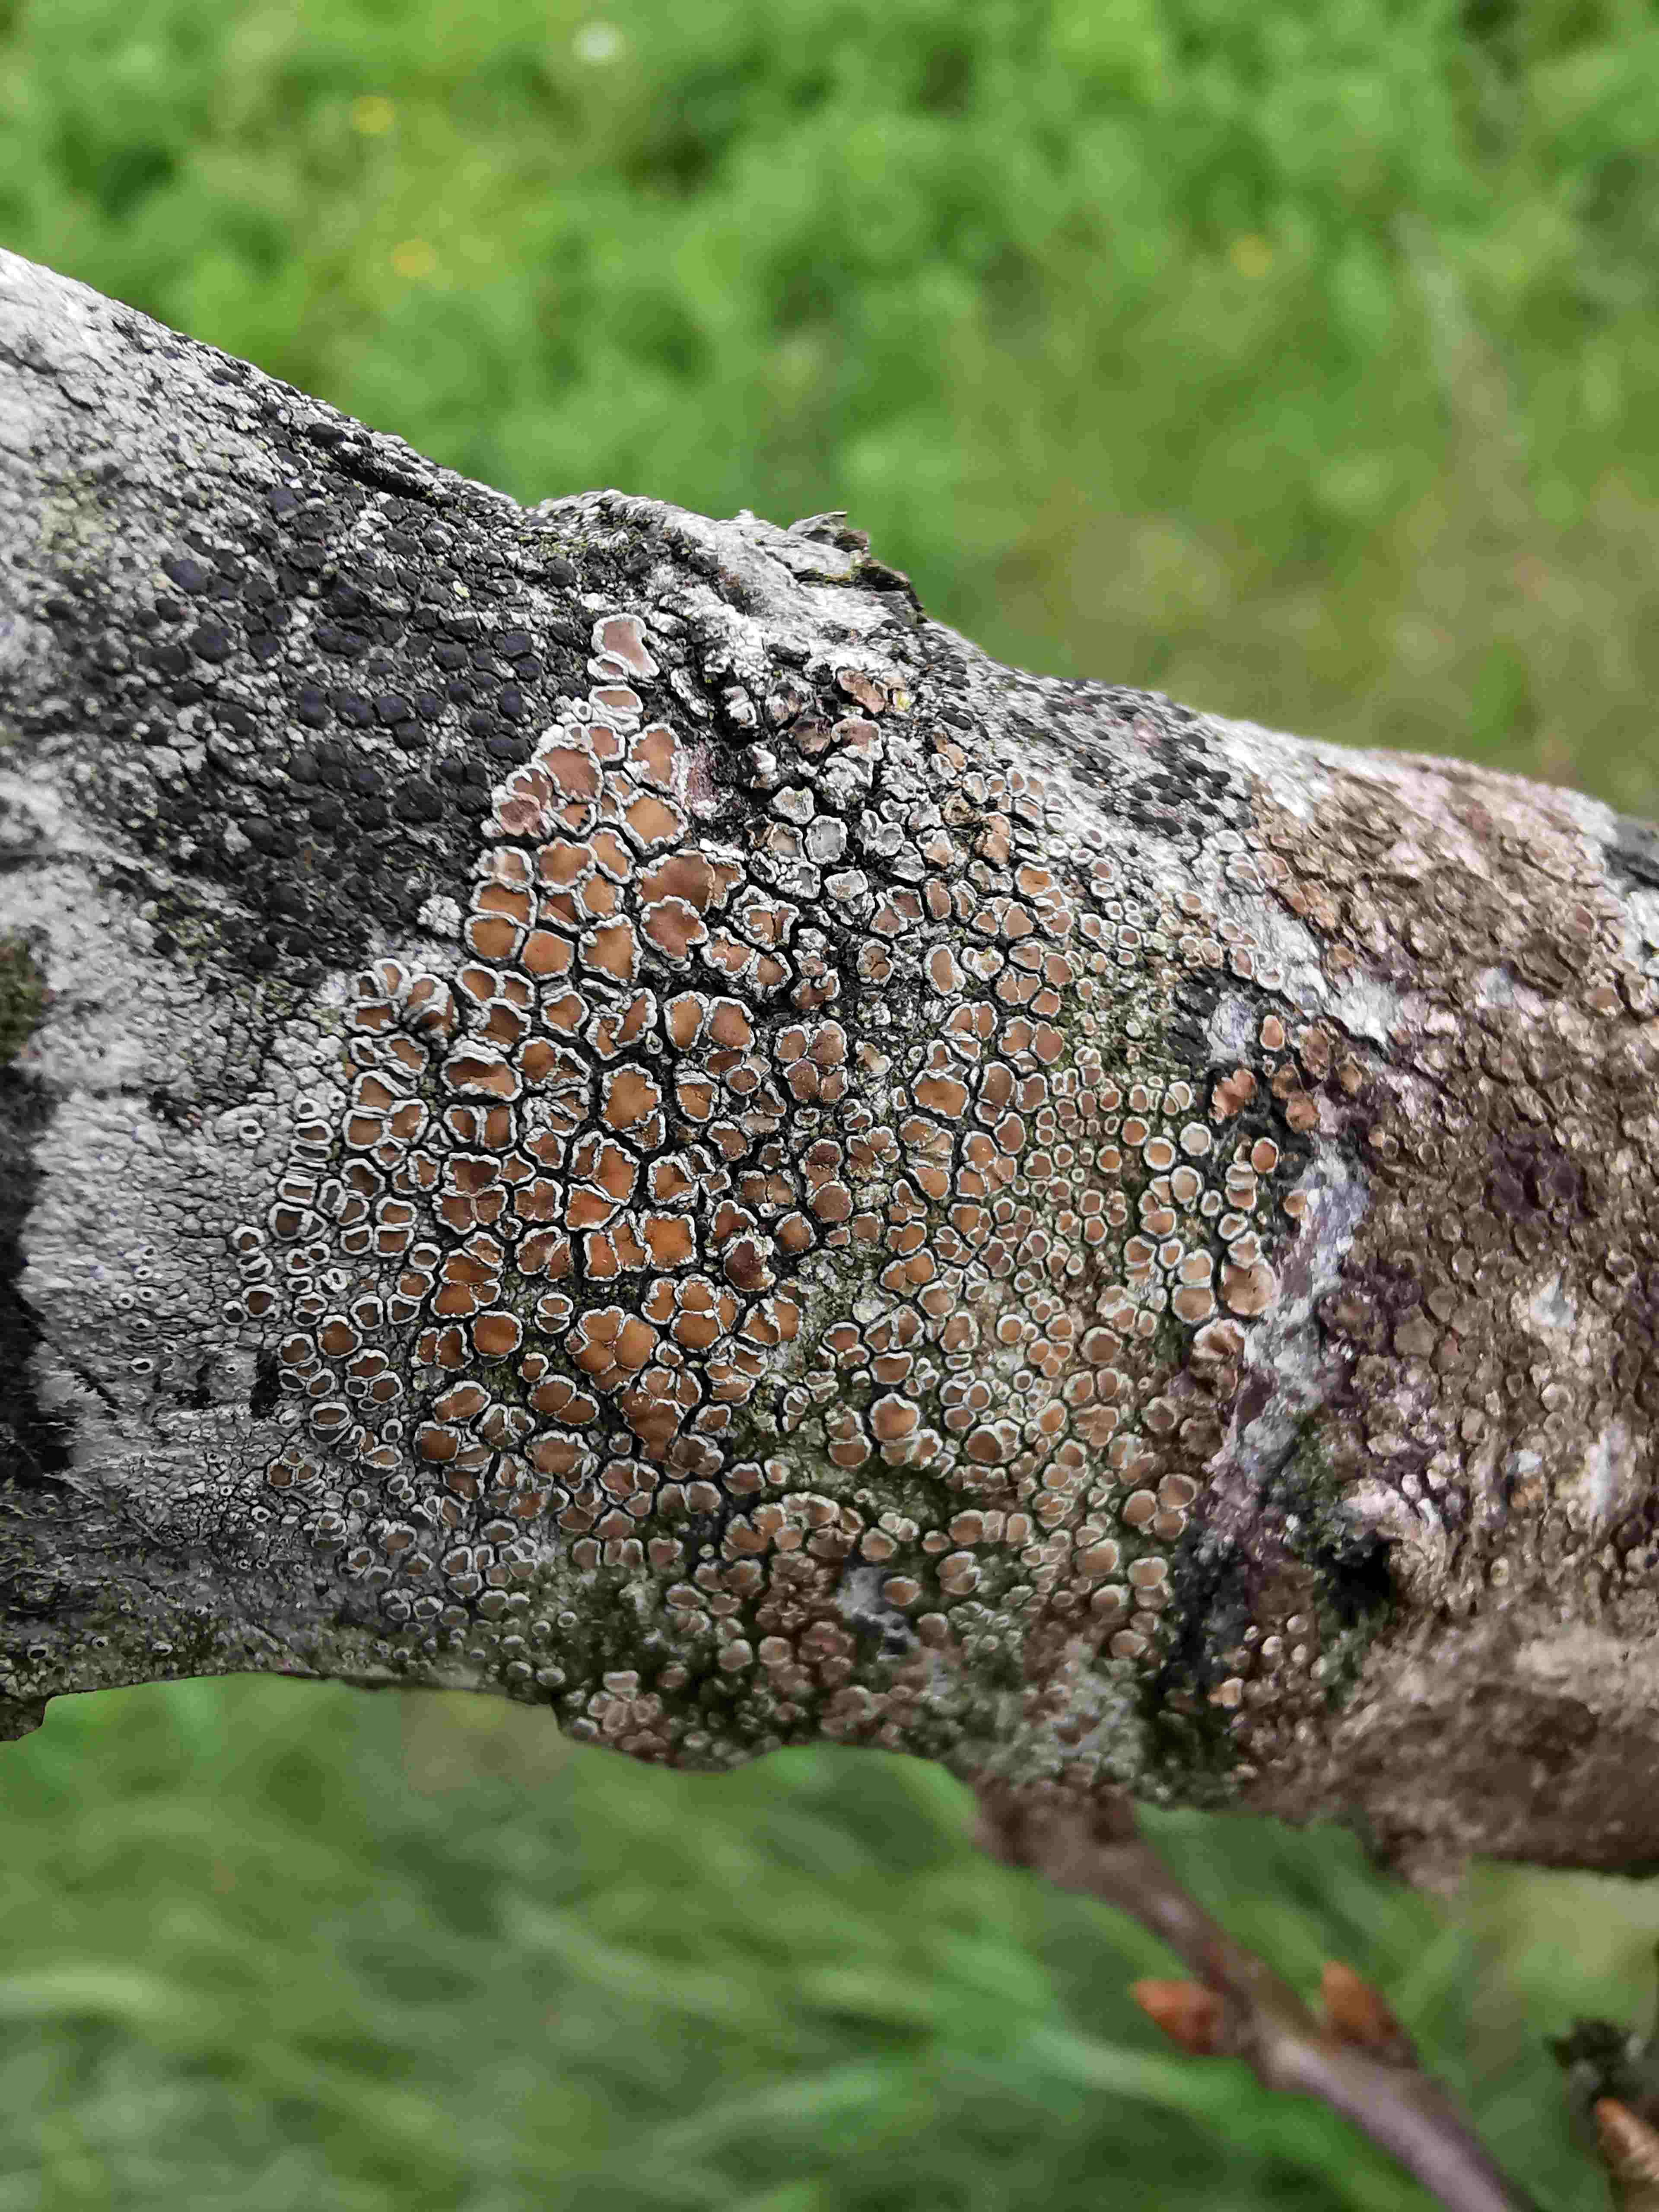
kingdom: Fungi
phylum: Ascomycota
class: Lecanoromycetes
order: Lecanorales
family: Lecanoraceae
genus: Lecanora
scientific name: Lecanora chlarotera
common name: brun kantskivelav
